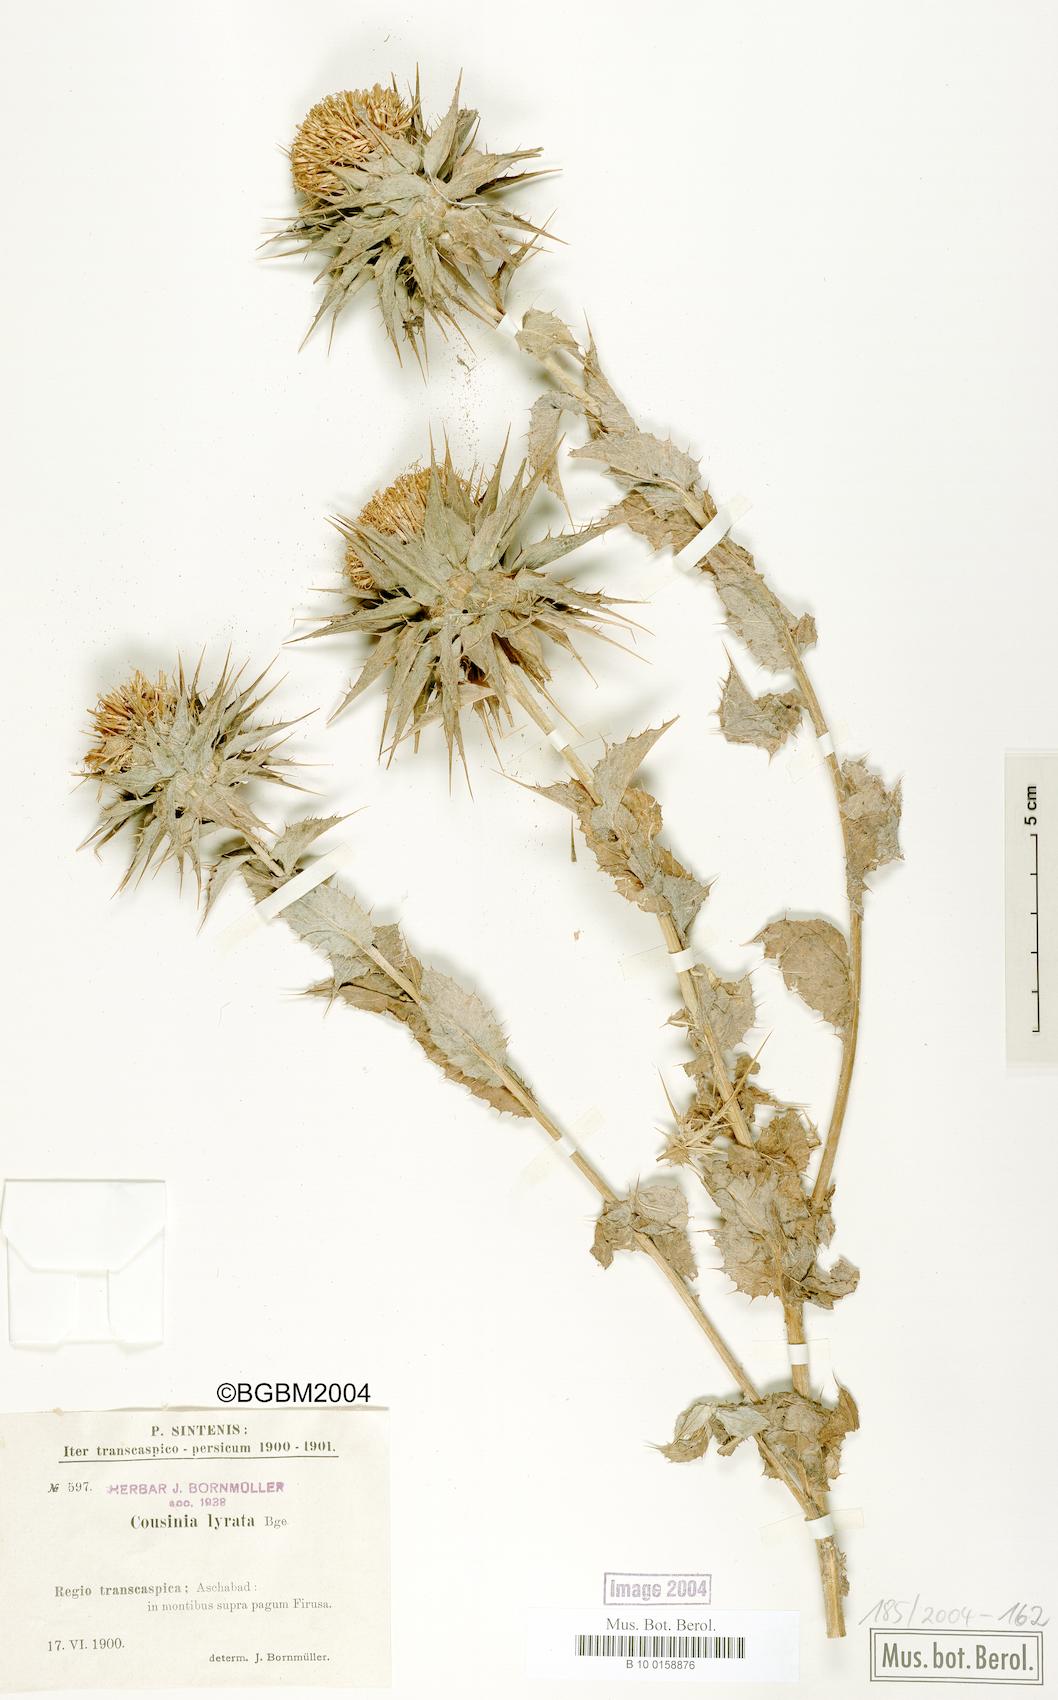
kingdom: Plantae
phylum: Tracheophyta
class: Magnoliopsida
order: Asterales
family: Asteraceae
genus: Cousinia
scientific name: Cousinia lyrata
